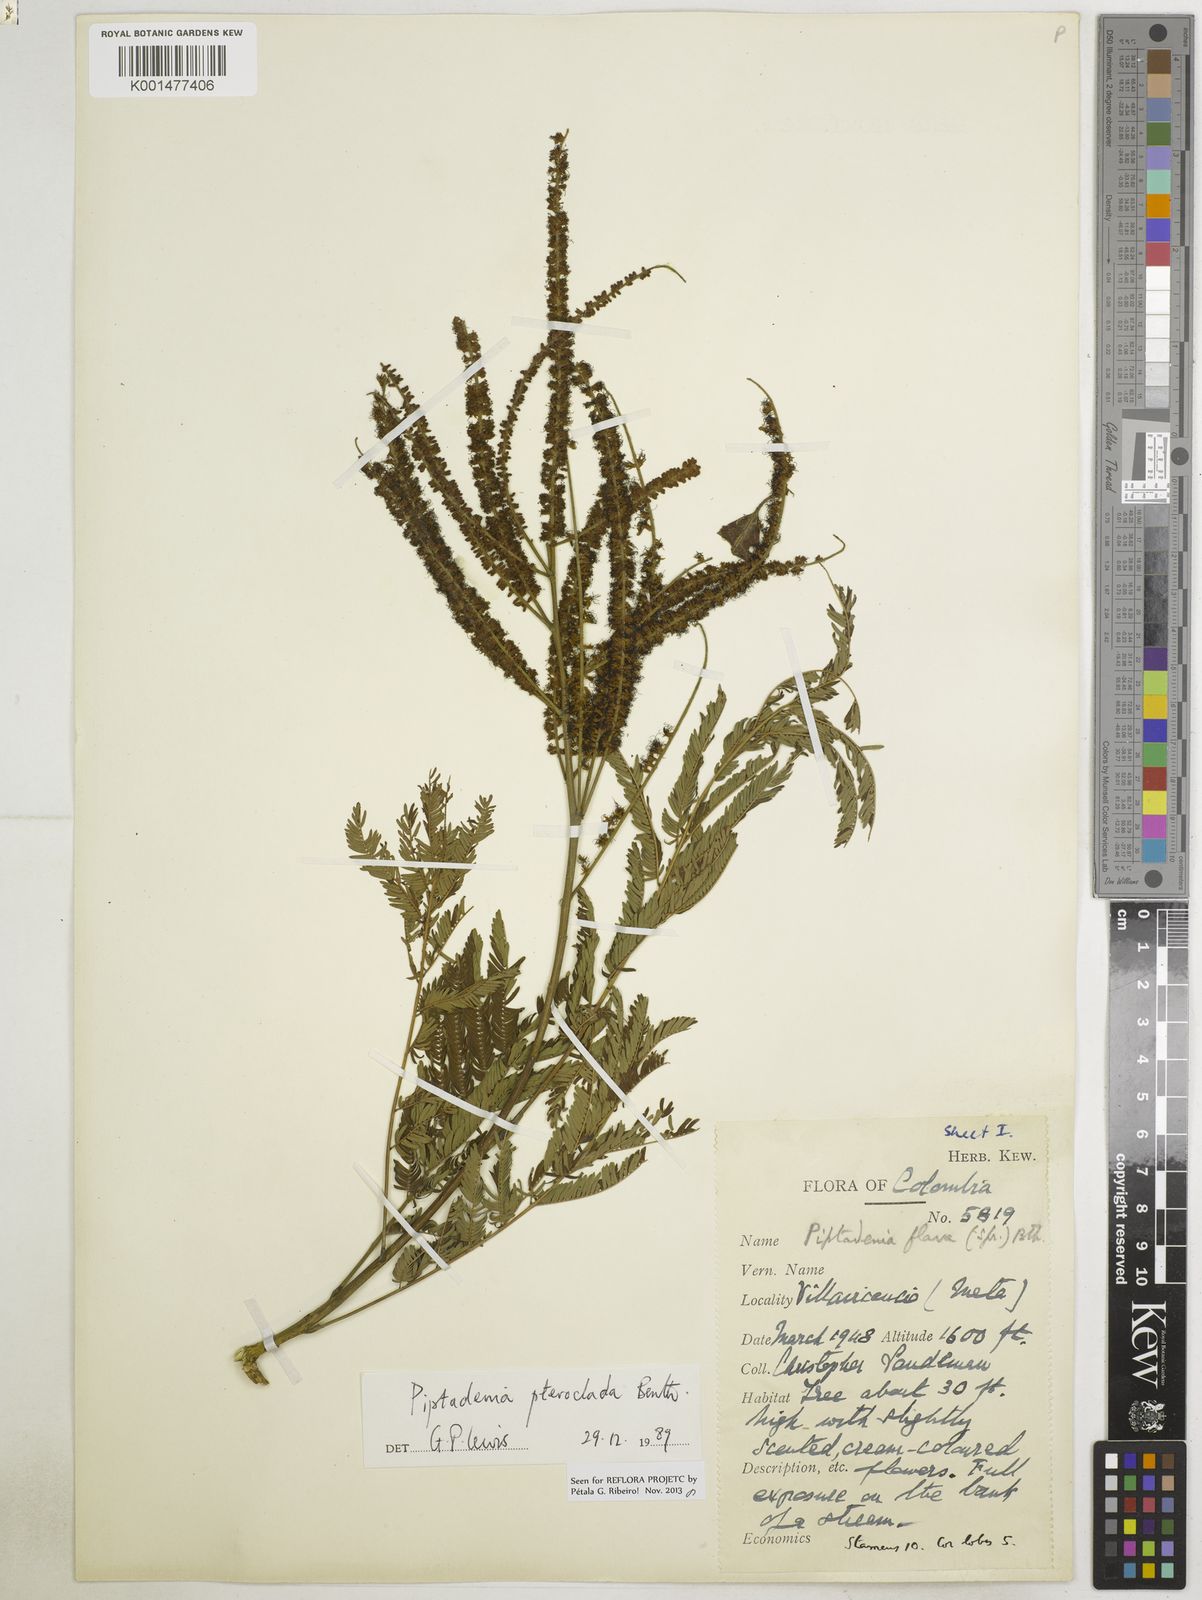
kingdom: Plantae
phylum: Tracheophyta
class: Magnoliopsida
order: Fabales
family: Fabaceae
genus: Piptadenia
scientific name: Piptadenia pteroclada
